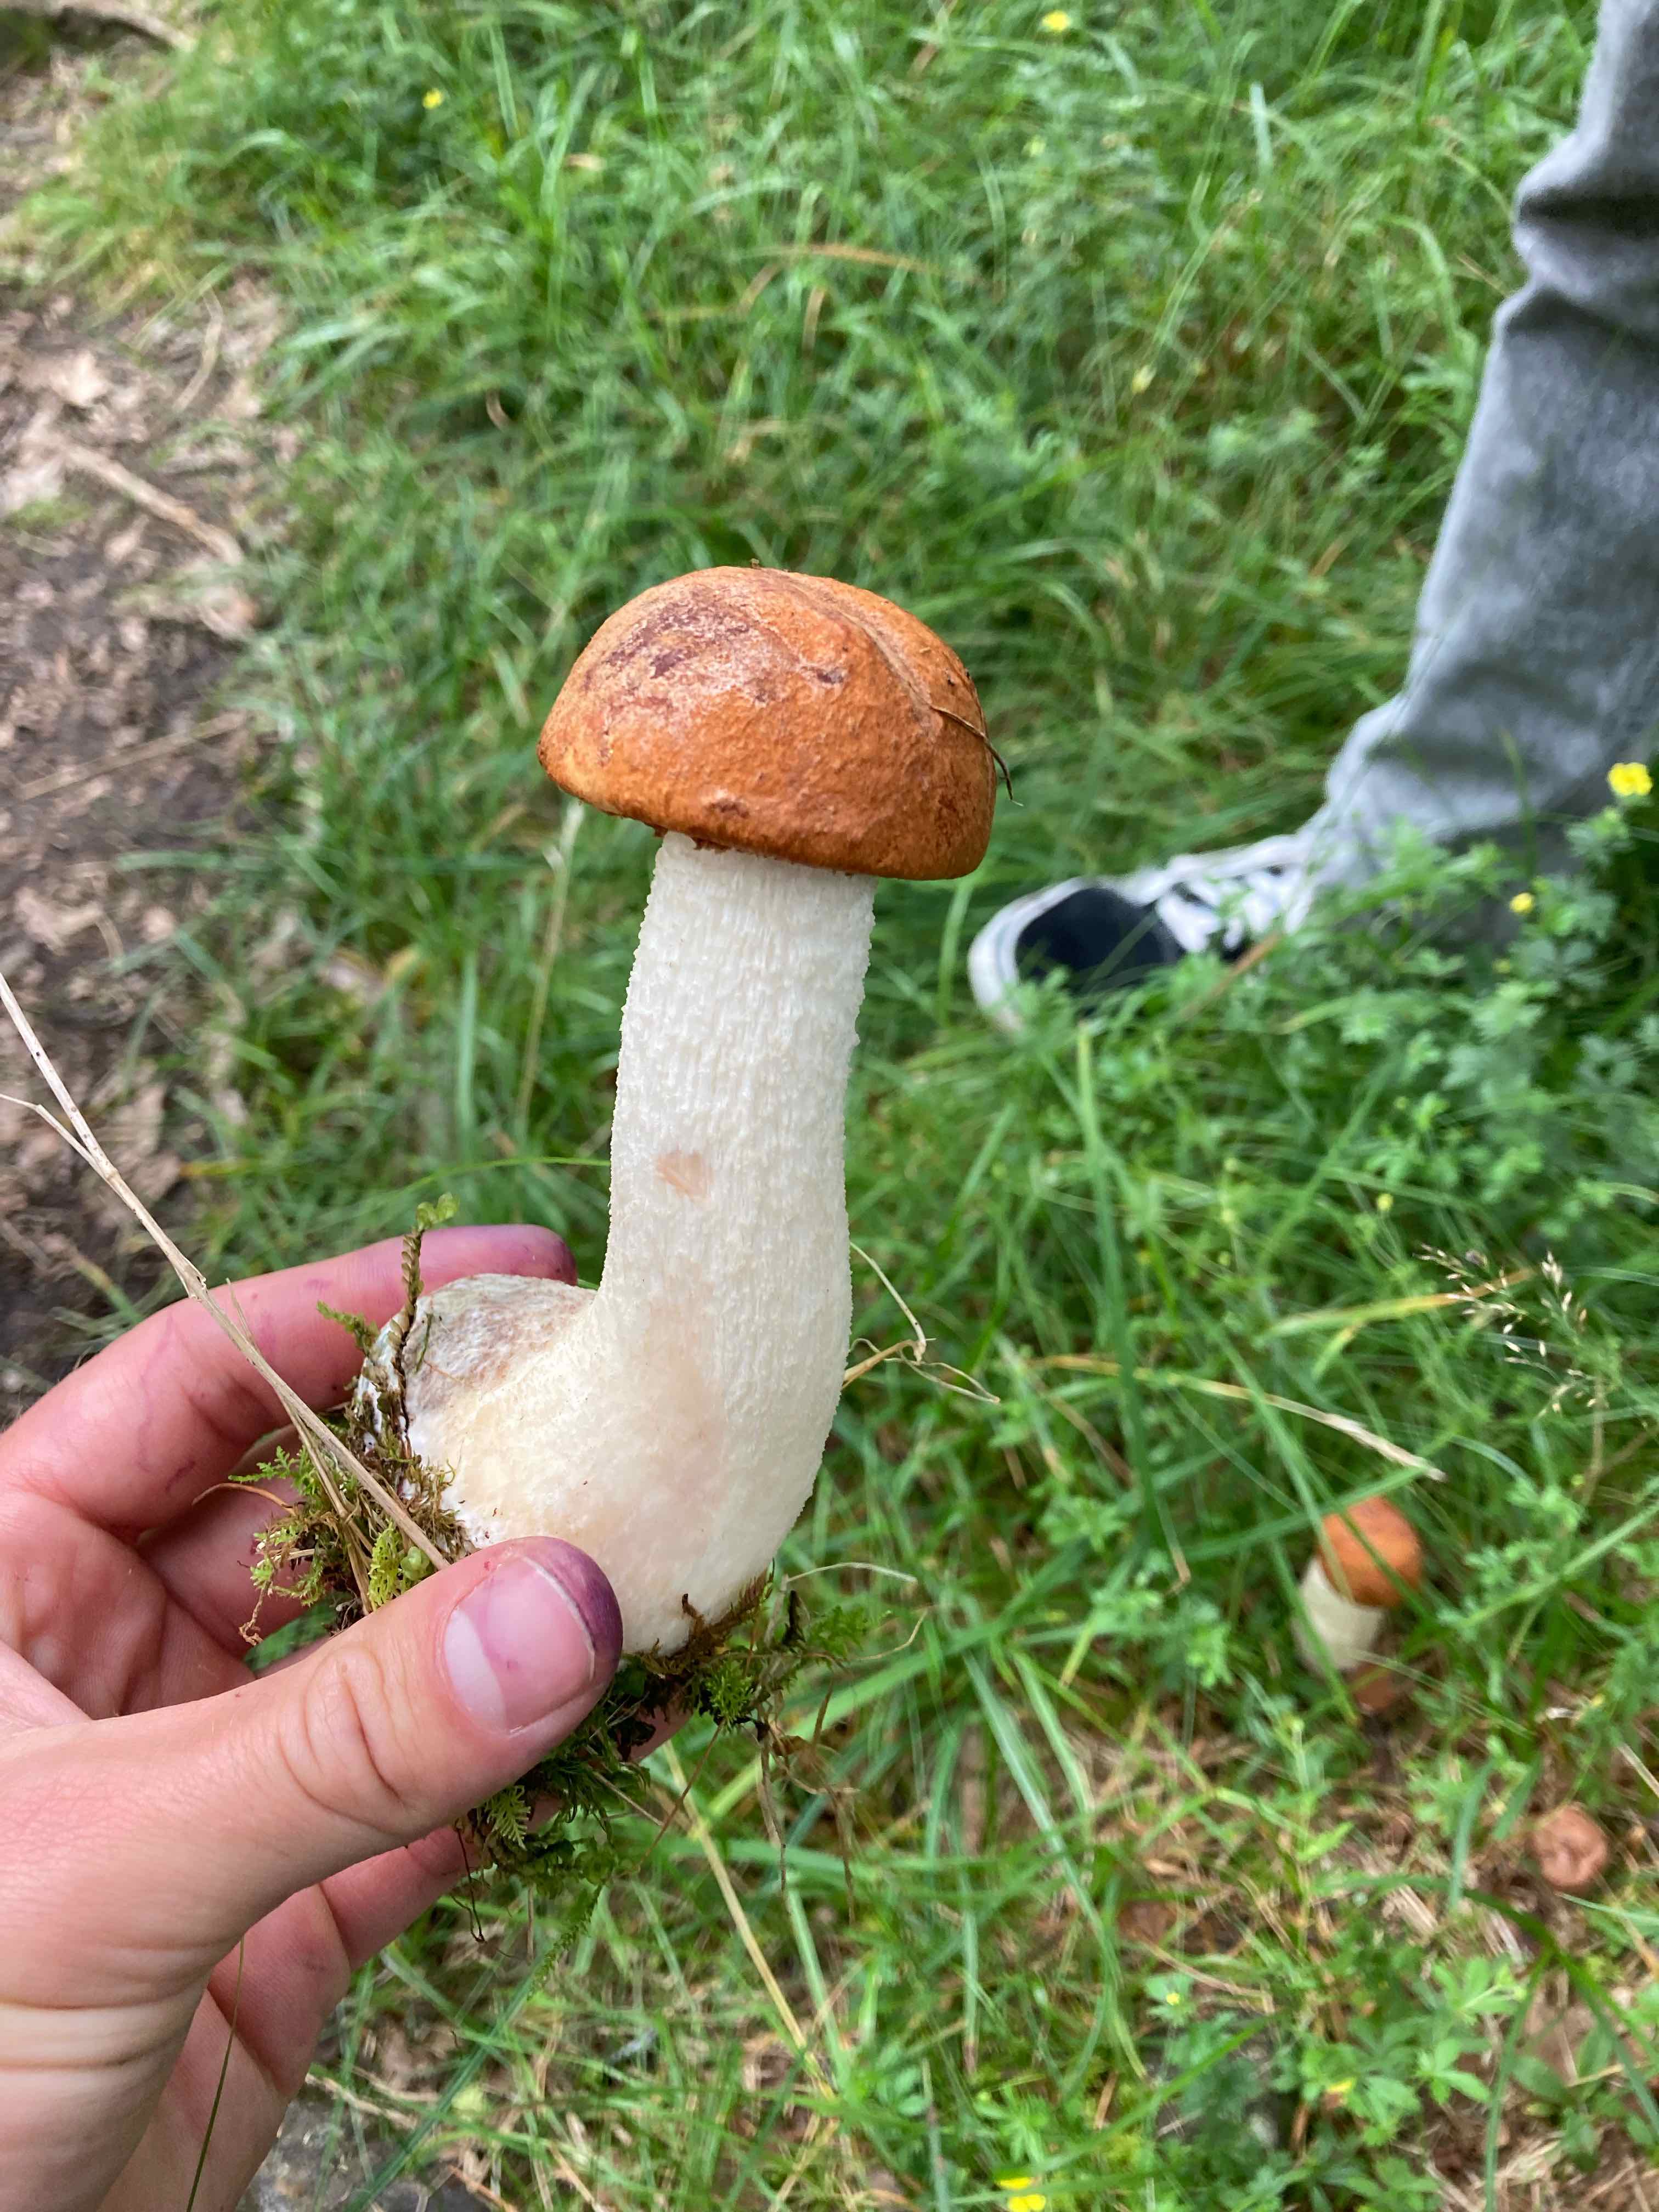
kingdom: Fungi
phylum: Basidiomycota
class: Agaricomycetes
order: Boletales
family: Boletaceae
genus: Leccinum
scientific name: Leccinum
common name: skælrørhat
